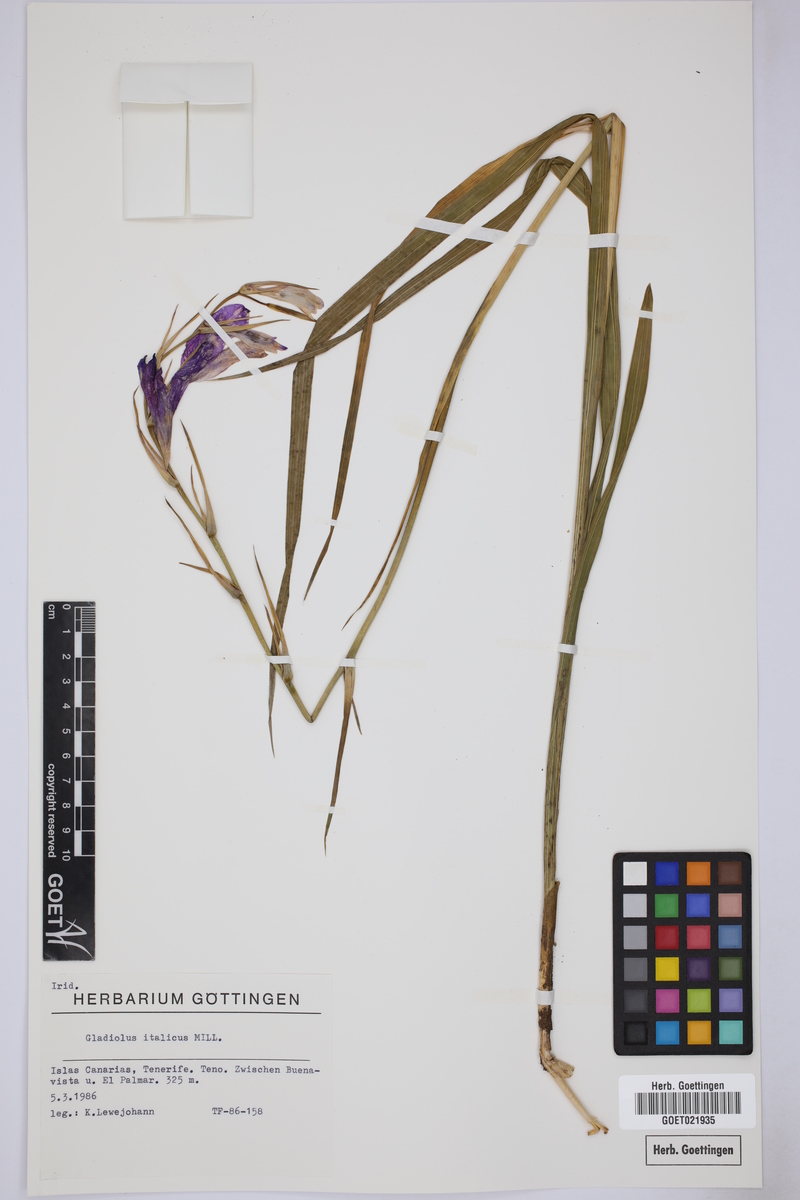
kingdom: Plantae
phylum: Tracheophyta
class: Liliopsida
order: Asparagales
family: Iridaceae
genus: Gladiolus
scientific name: Gladiolus italicus
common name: Field gladiolus
